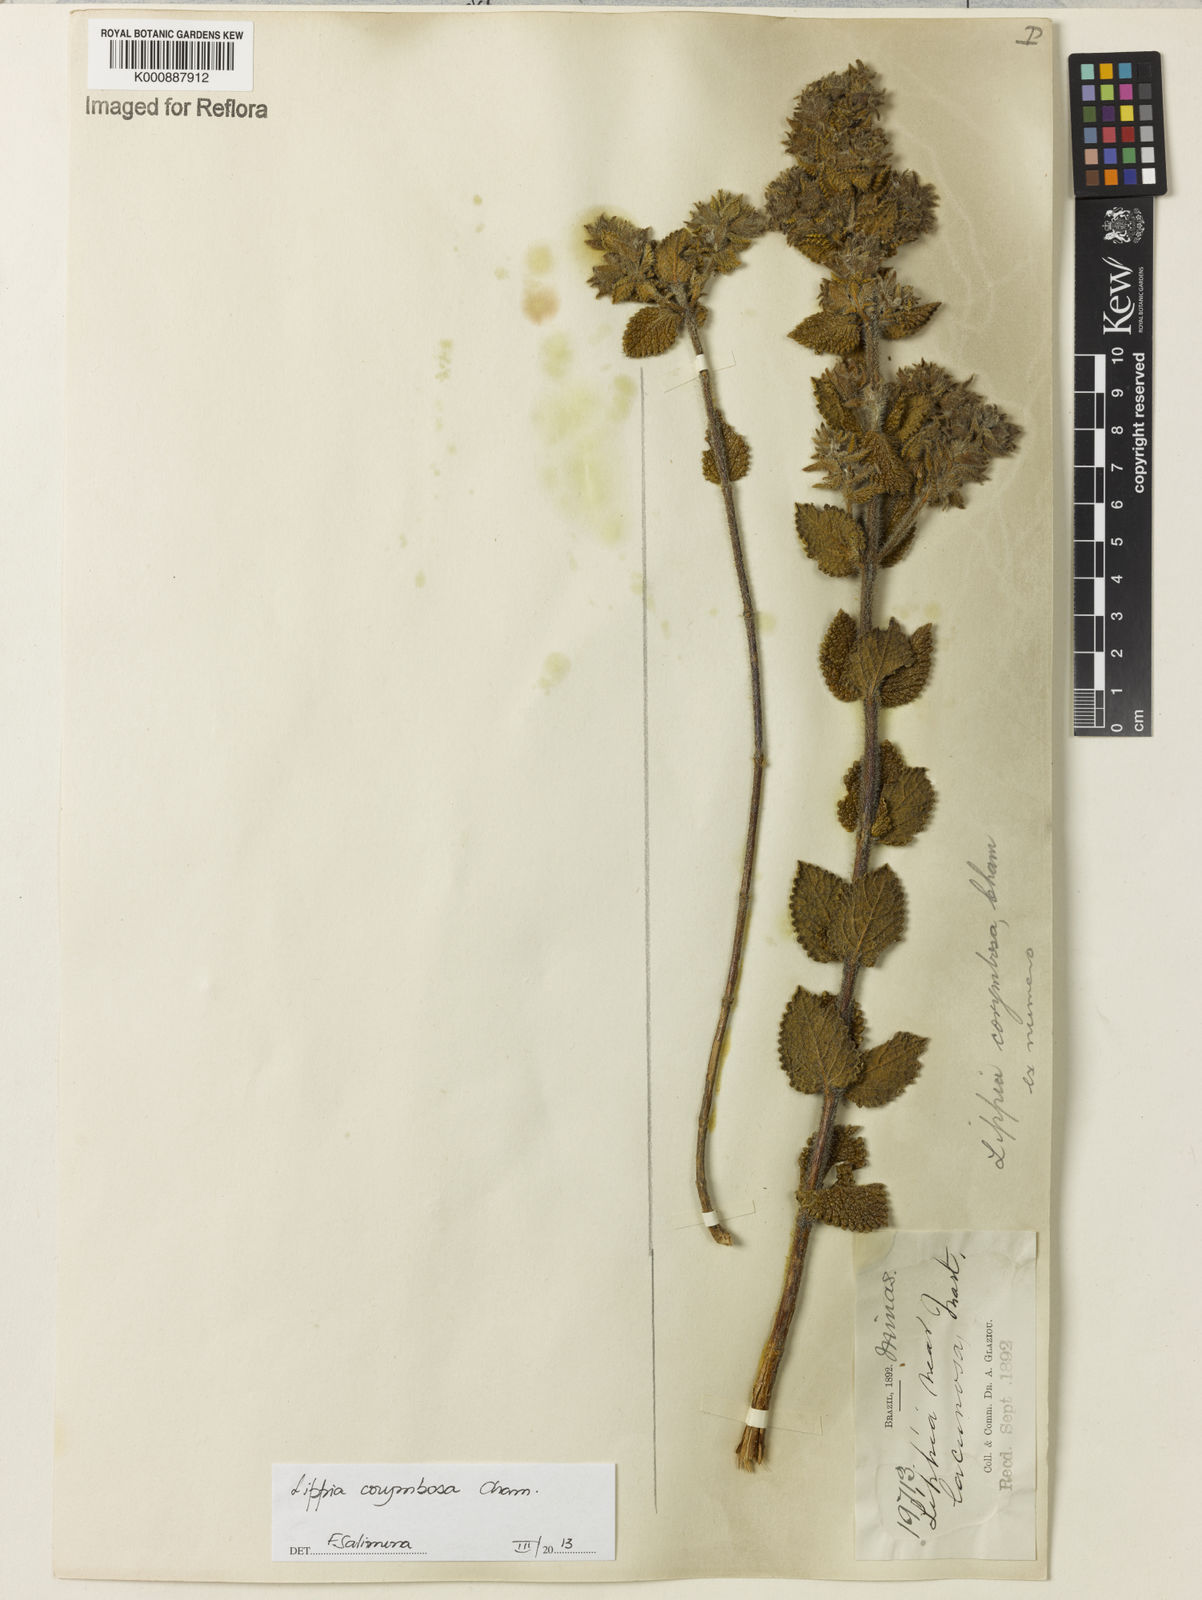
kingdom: Plantae
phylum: Tracheophyta
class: Magnoliopsida
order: Lamiales
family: Verbenaceae
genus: Lippia
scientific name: Lippia corymbosa
